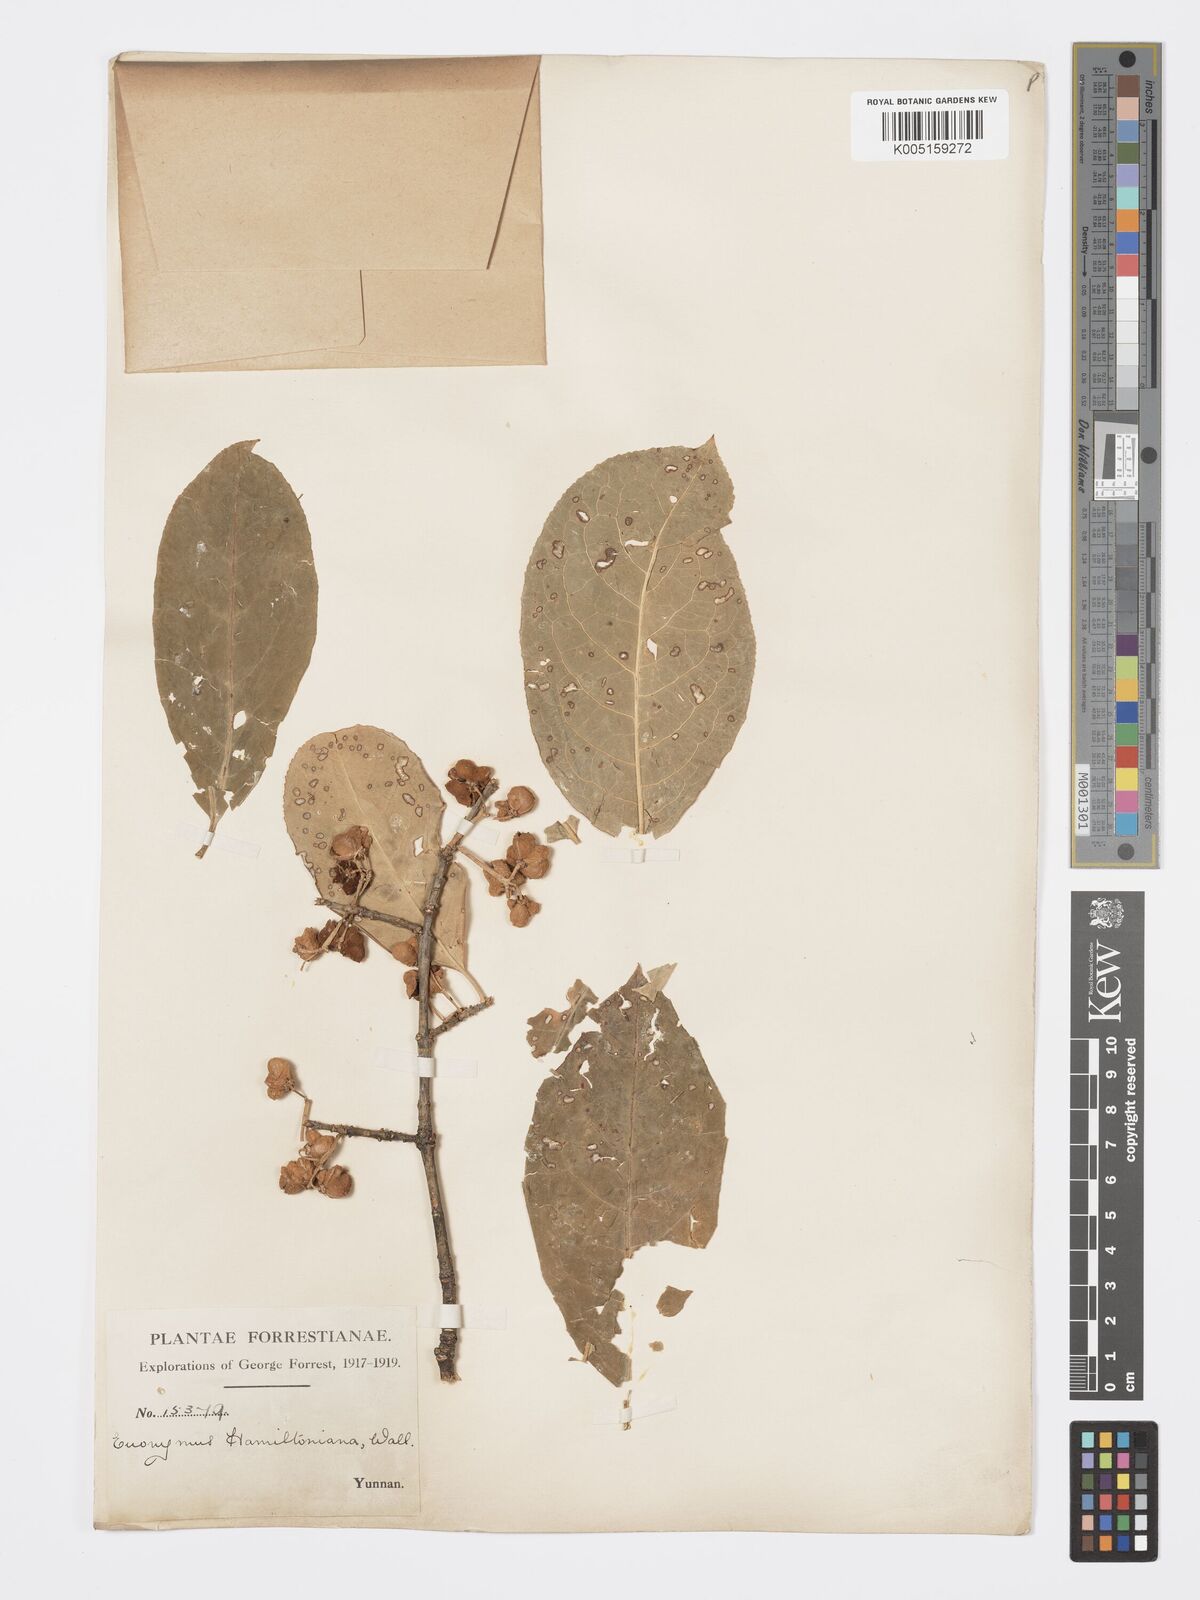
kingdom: Plantae
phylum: Tracheophyta
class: Magnoliopsida
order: Celastrales
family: Celastraceae
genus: Euonymus
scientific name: Euonymus hamiltonianus
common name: Hamilton's spindletree
